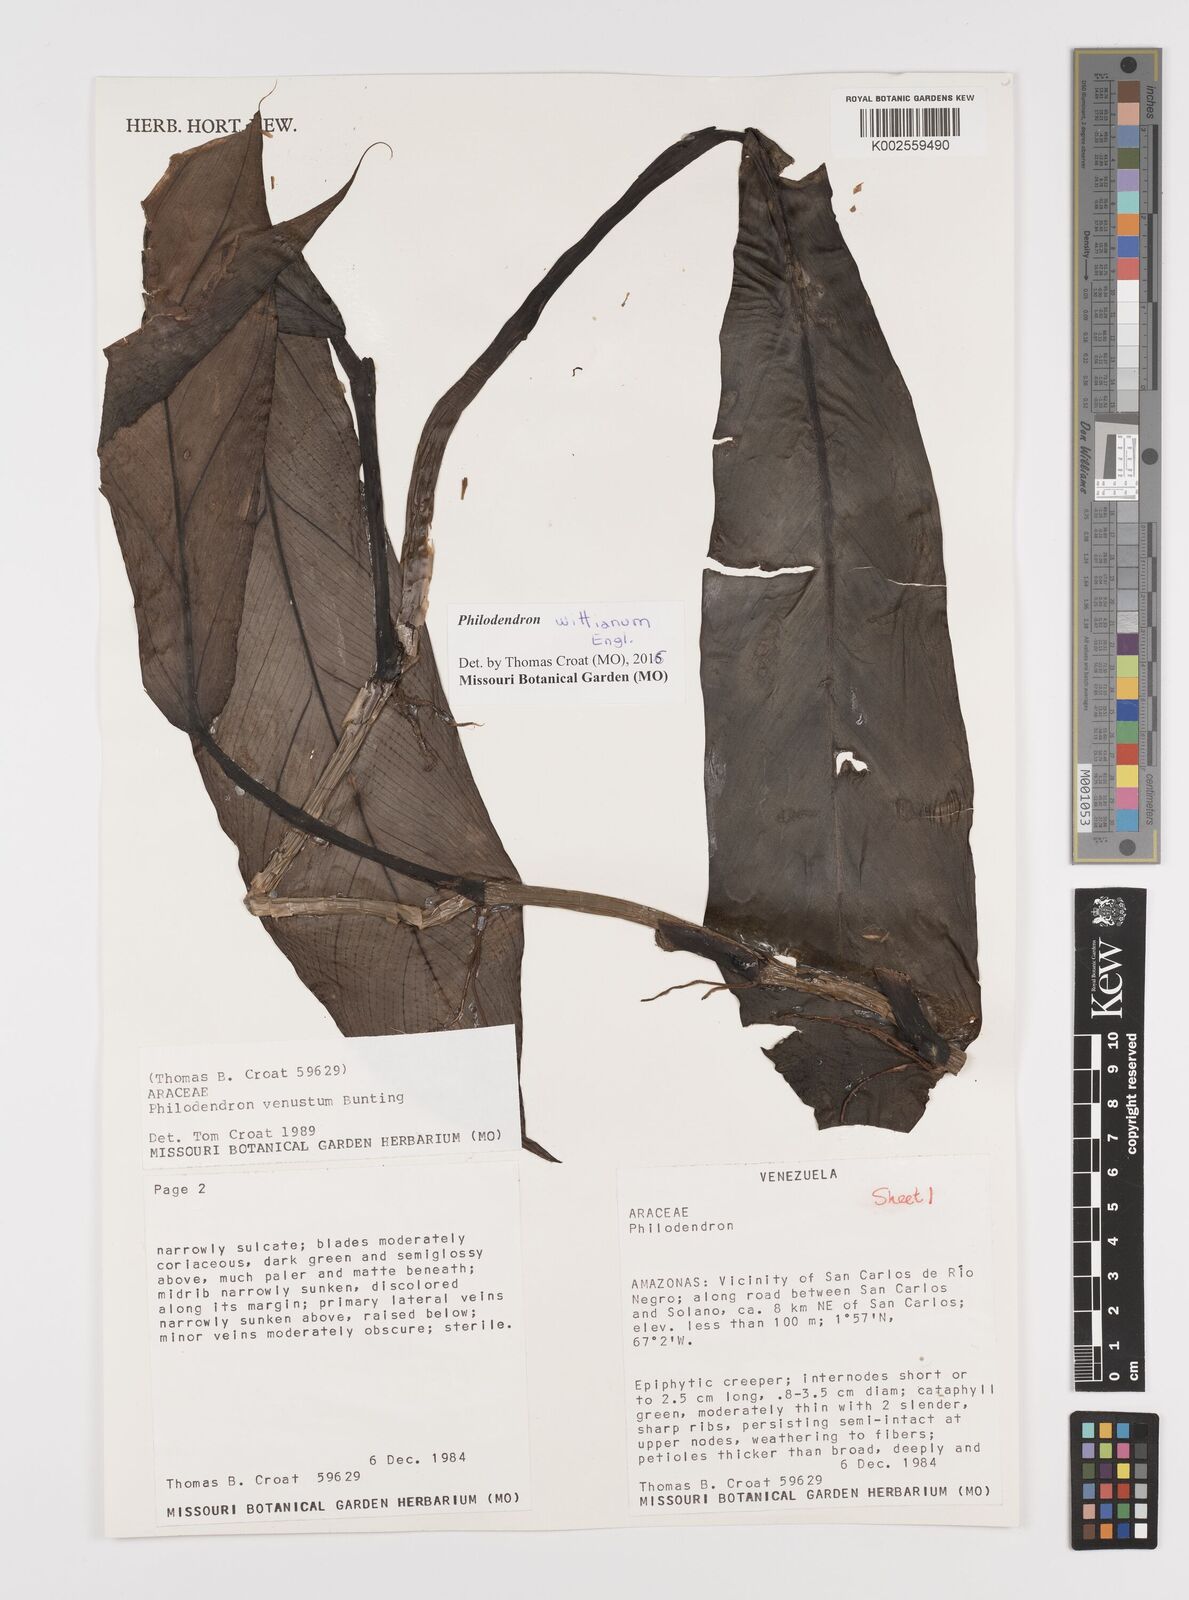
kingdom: Plantae
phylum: Tracheophyta
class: Liliopsida
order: Alismatales
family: Araceae
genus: Philodendron
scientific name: Philodendron wittianum
